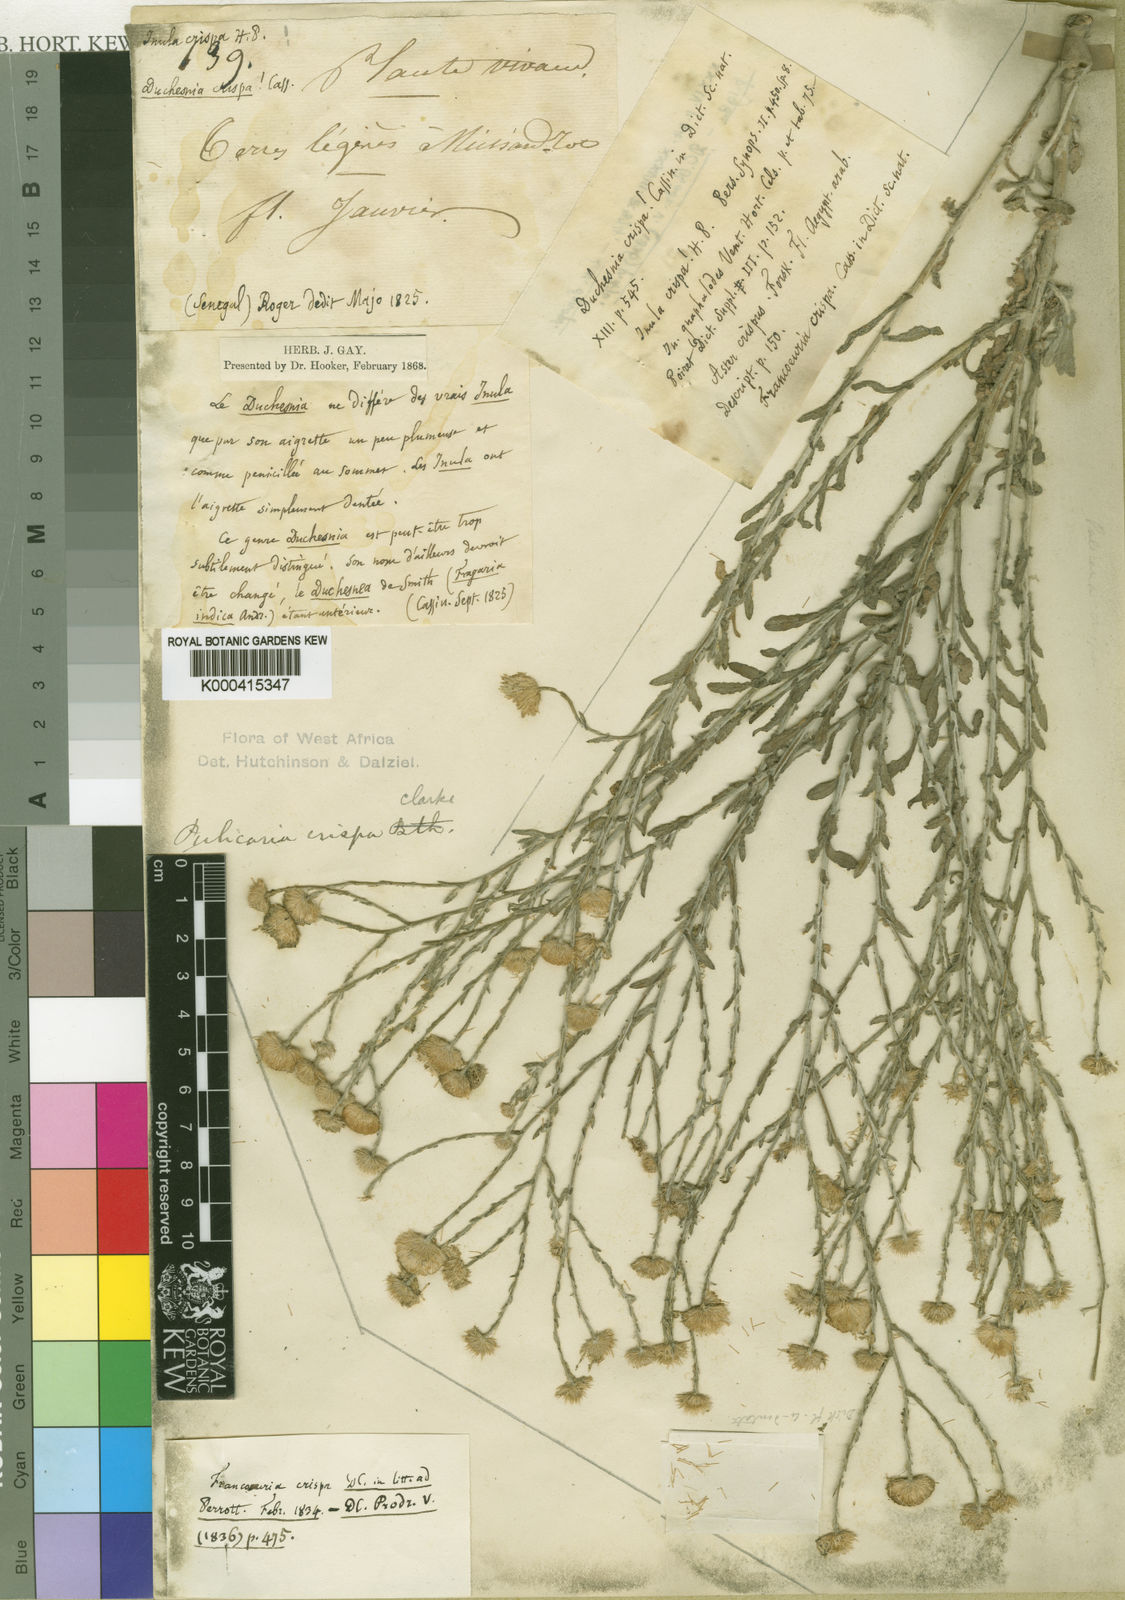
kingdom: Plantae
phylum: Tracheophyta
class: Magnoliopsida
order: Asterales
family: Asteraceae
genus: Pulicaria
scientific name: Pulicaria
